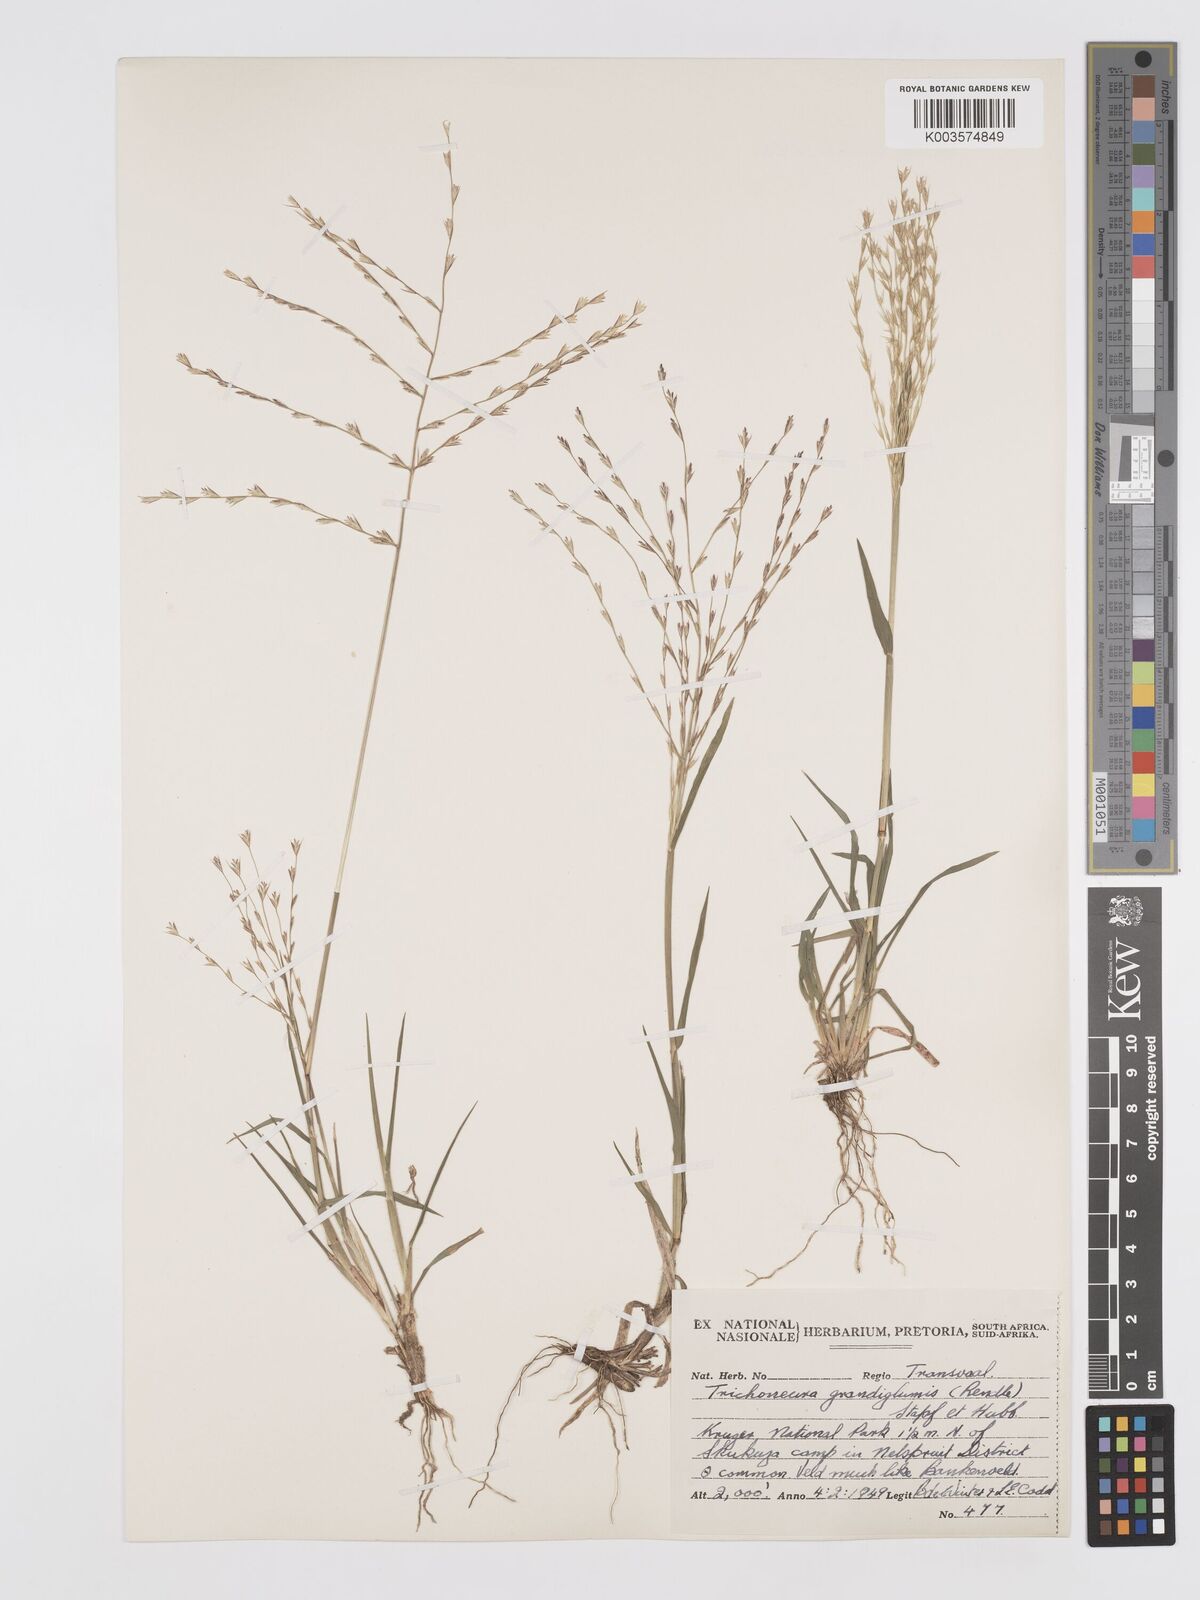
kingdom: Plantae
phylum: Tracheophyta
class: Liliopsida
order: Poales
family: Poaceae
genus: Trichoneura
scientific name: Trichoneura grandiglumis
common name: Rolling grass
